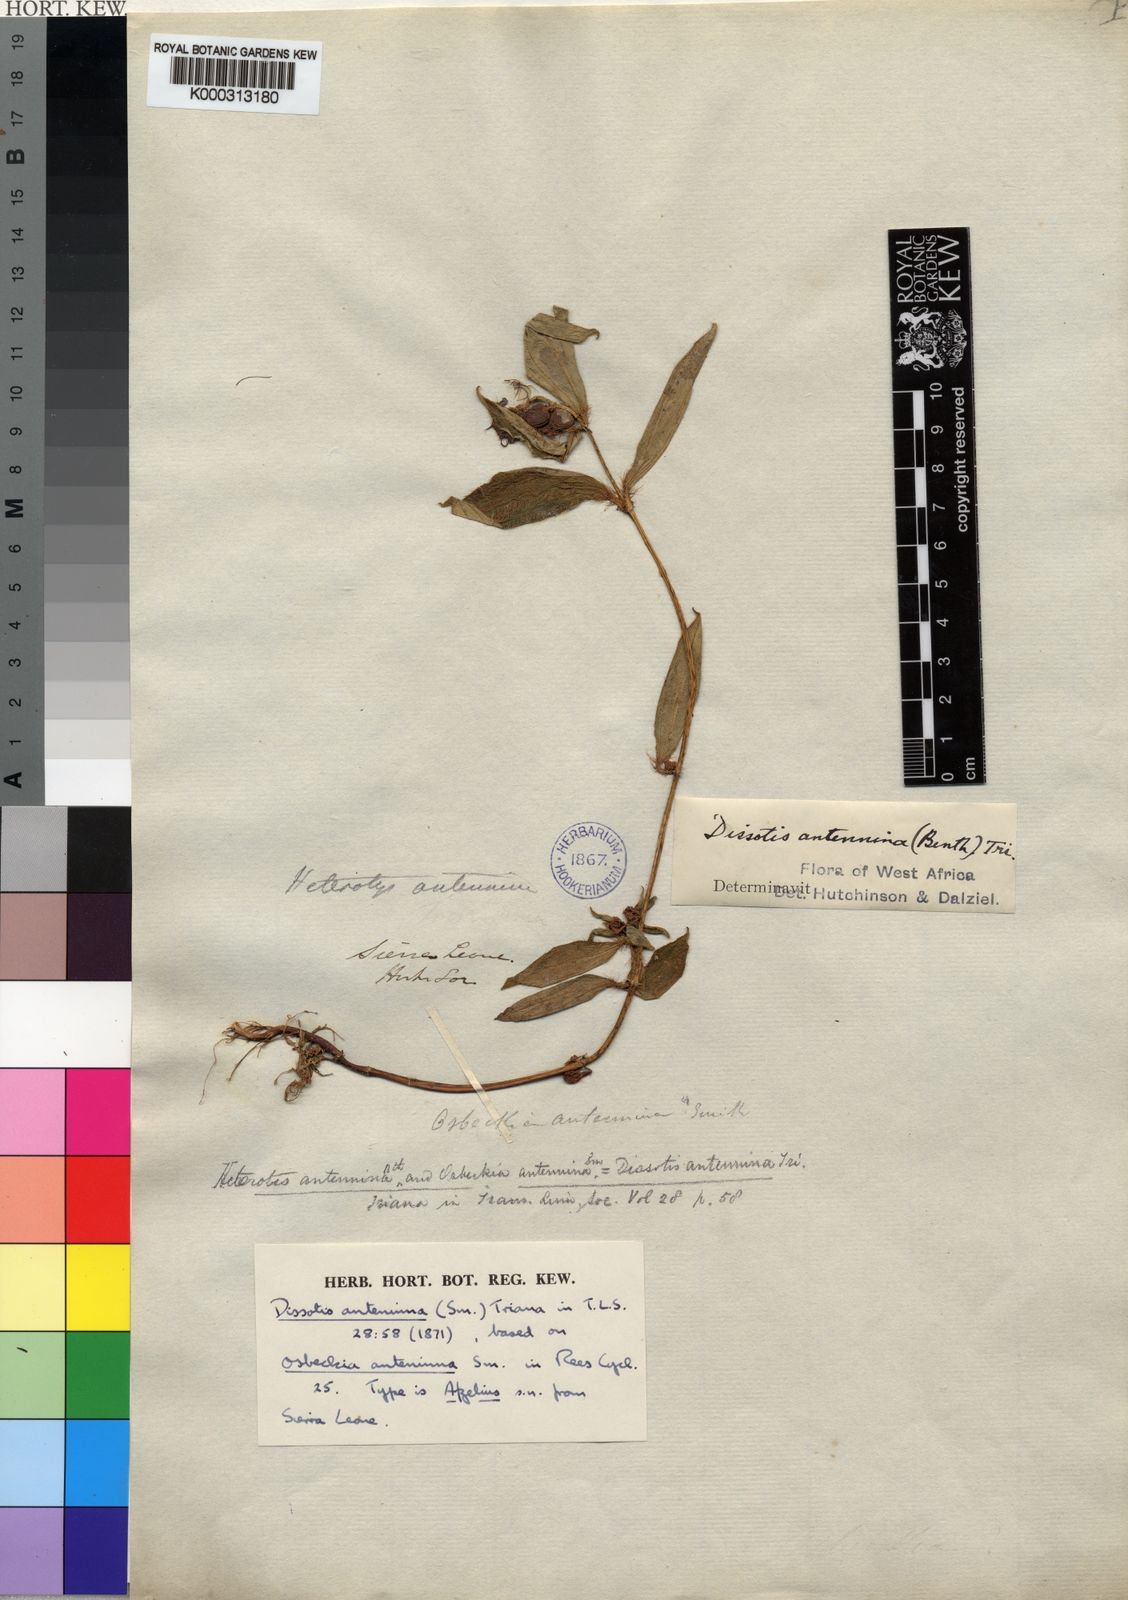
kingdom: Plantae
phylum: Tracheophyta
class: Magnoliopsida
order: Myrtales
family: Melastomataceae
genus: Guyonia
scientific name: Guyonia antennina
